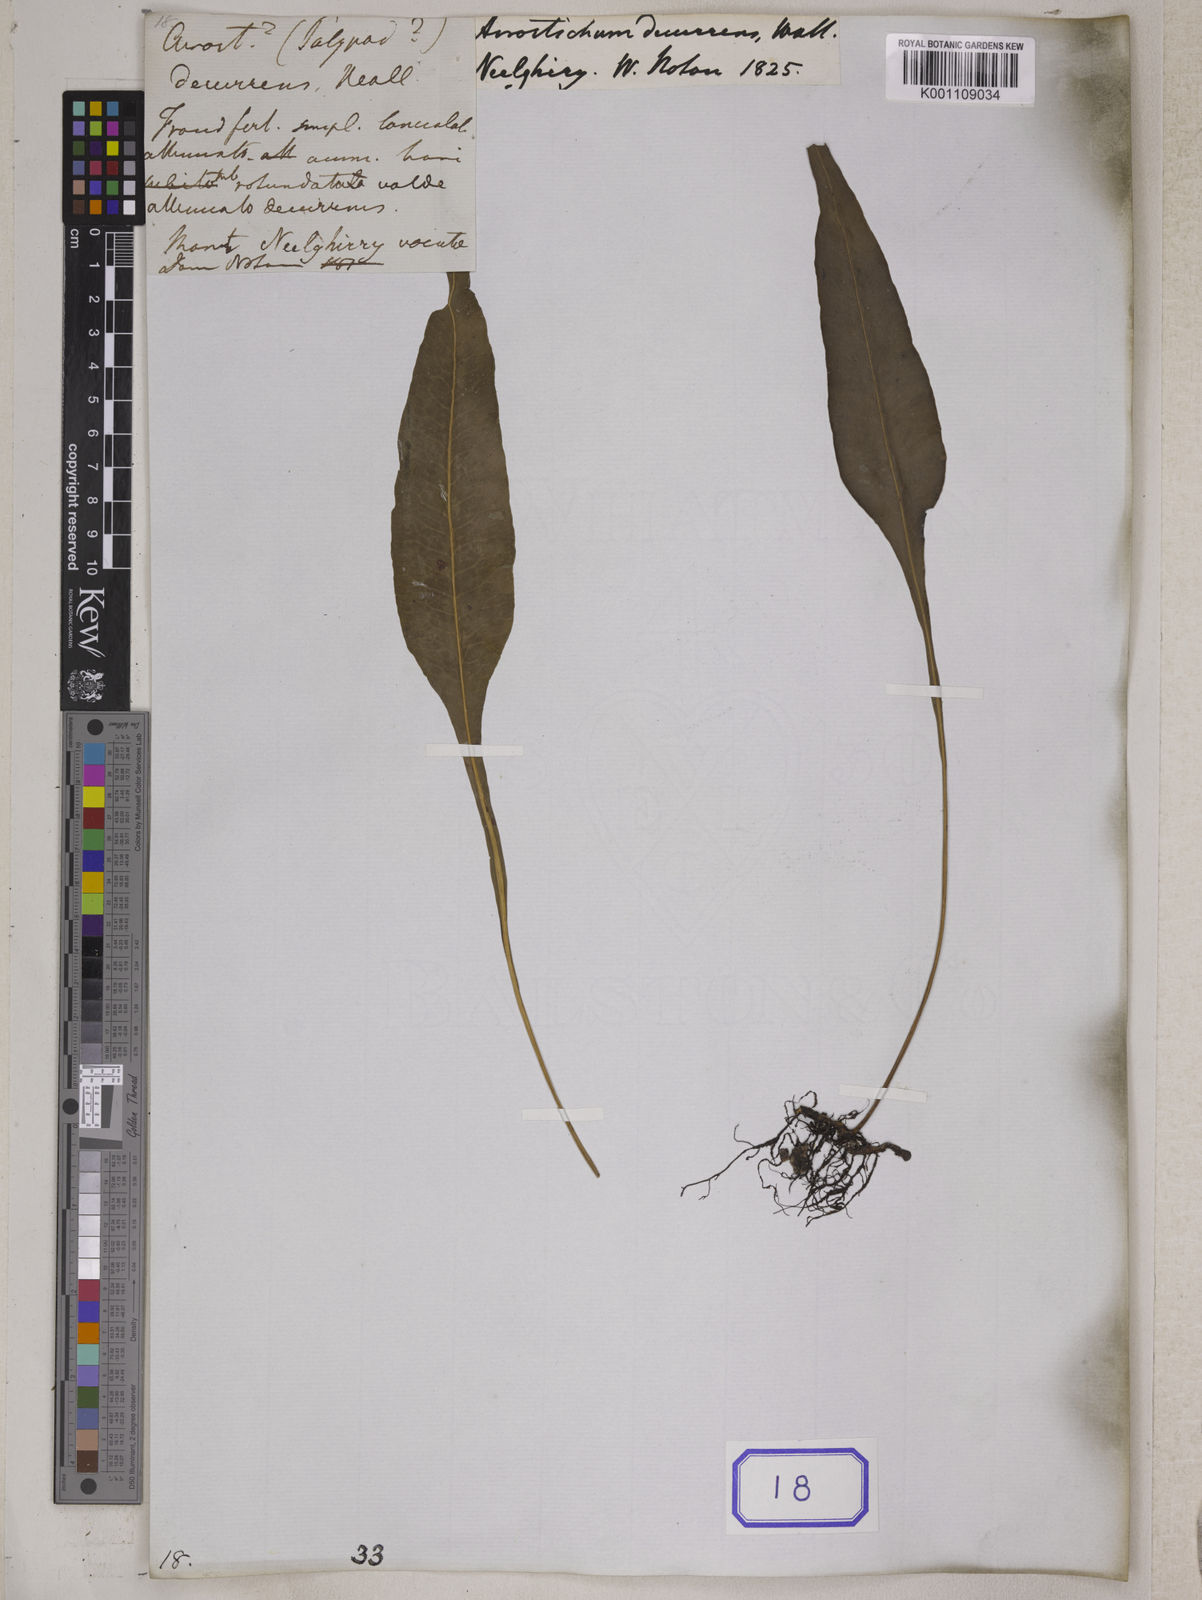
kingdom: Plantae
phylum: Tracheophyta
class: Polypodiopsida
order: Polypodiales
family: Polypodiaceae
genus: Leptochilus
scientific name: Leptochilus decurrens
